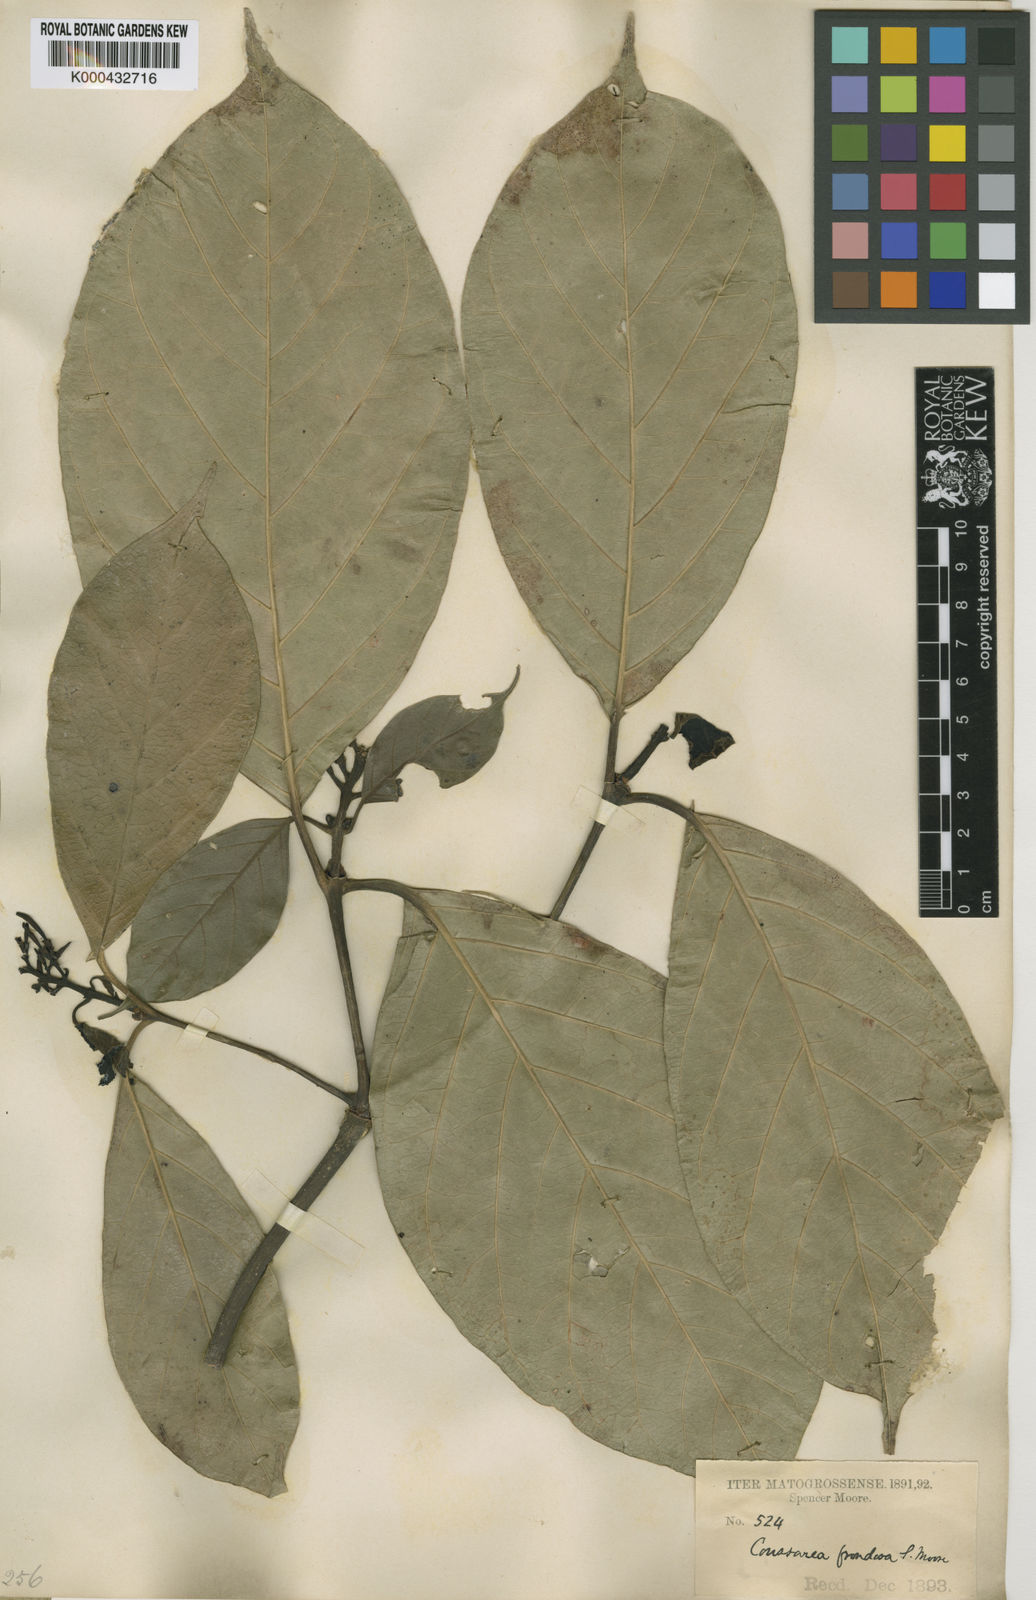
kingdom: Plantae
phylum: Tracheophyta
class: Magnoliopsida
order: Gentianales
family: Rubiaceae
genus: Coussarea
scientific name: Coussarea frondosa
